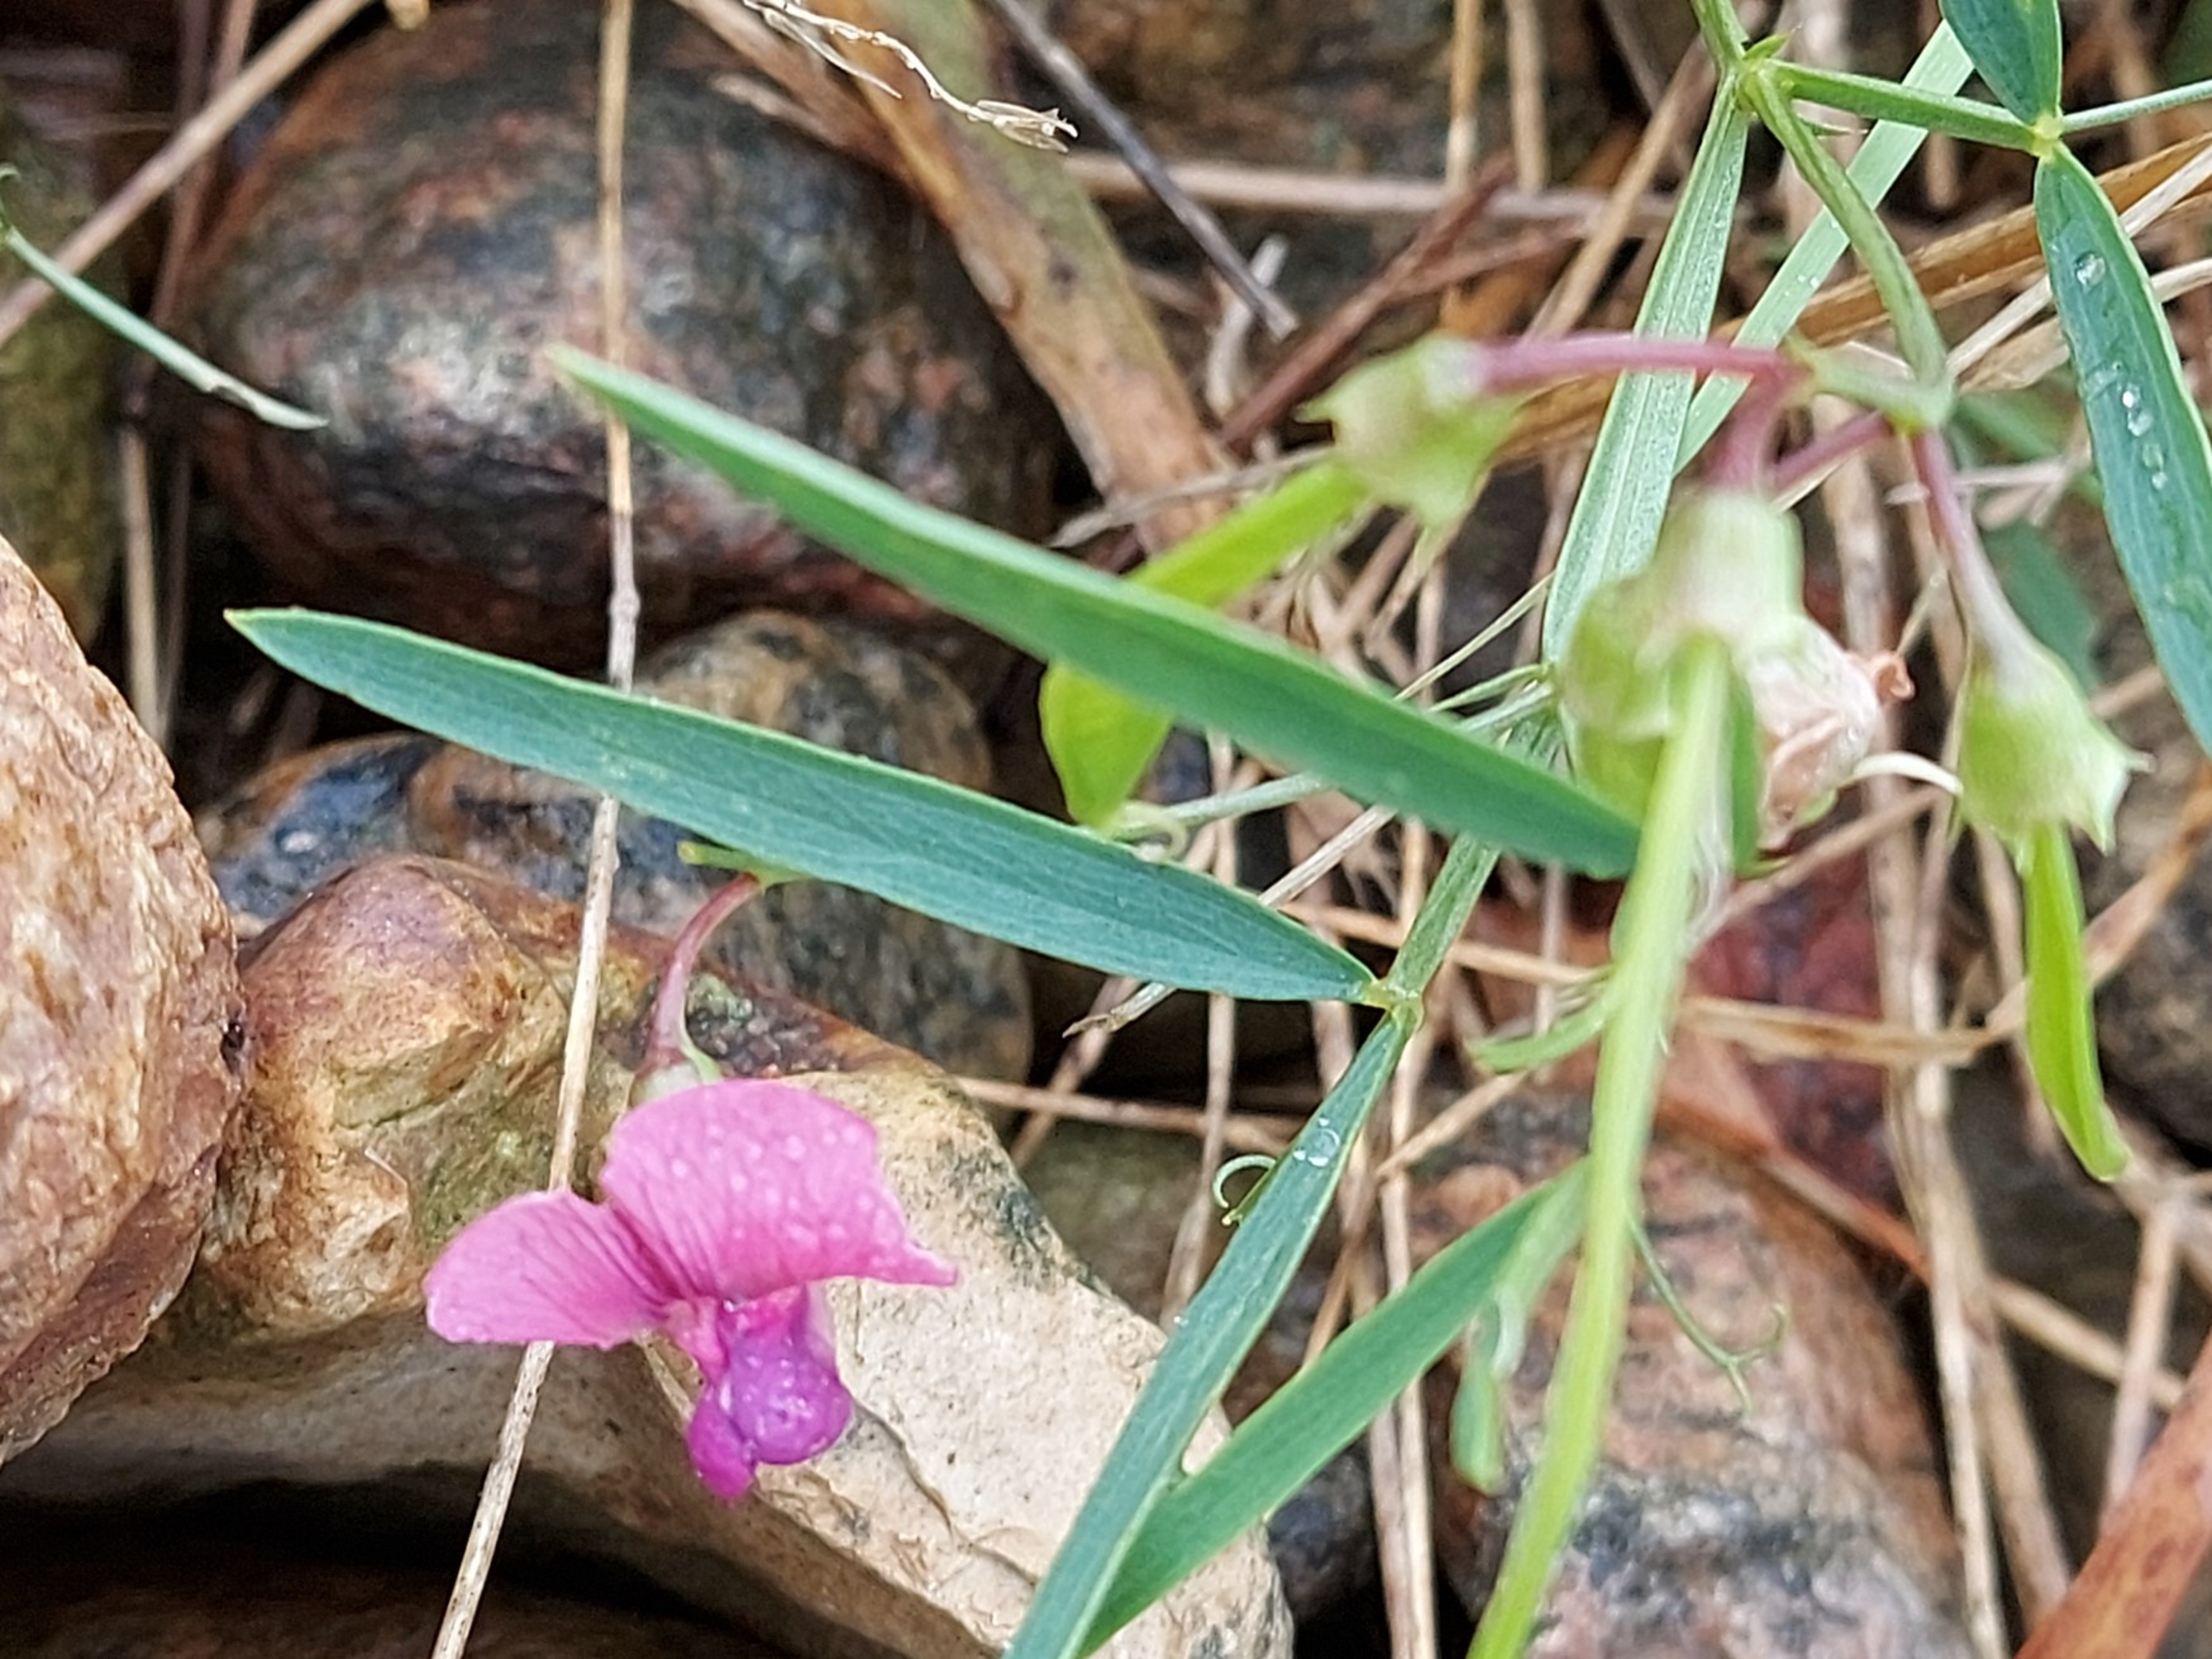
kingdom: Plantae
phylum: Tracheophyta
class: Magnoliopsida
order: Fabales
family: Fabaceae
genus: Lathyrus
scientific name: Lathyrus sylvestris
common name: Skov-fladbælg
